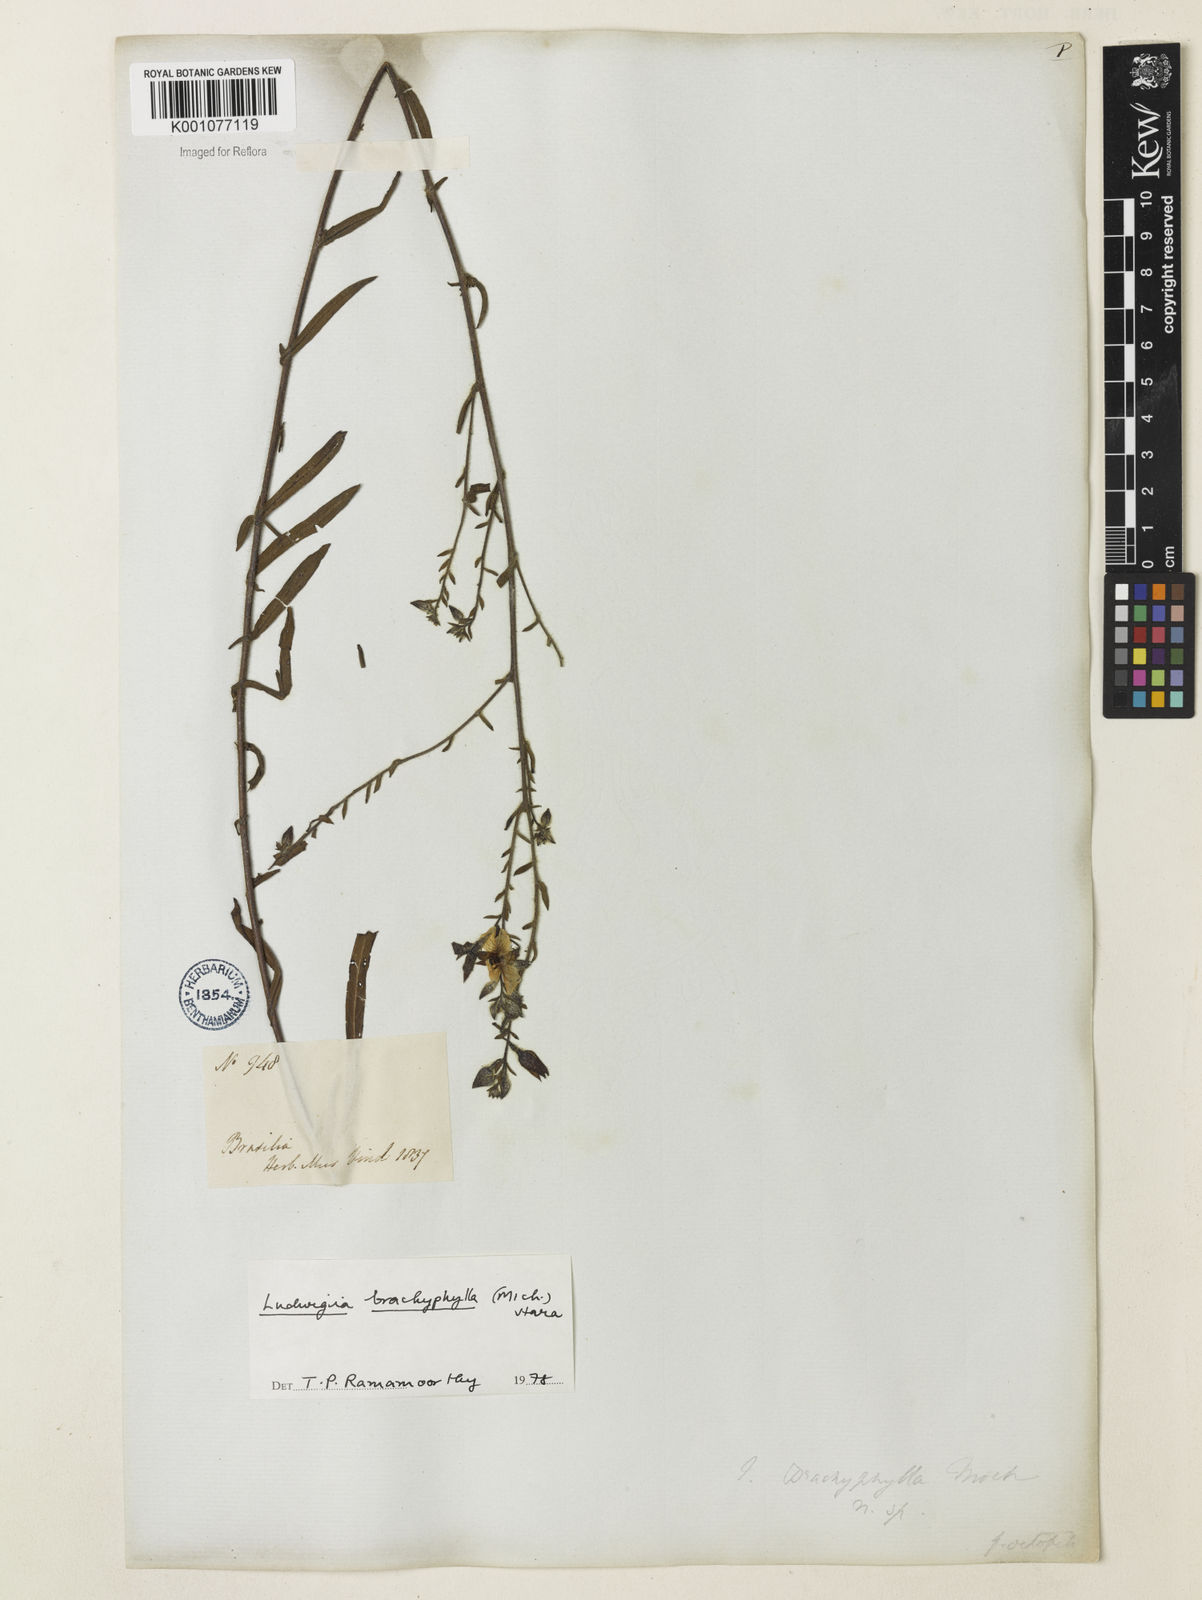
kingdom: Plantae
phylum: Tracheophyta
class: Magnoliopsida
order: Myrtales
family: Onagraceae
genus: Ludwigia
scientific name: Ludwigia brachyphylla
